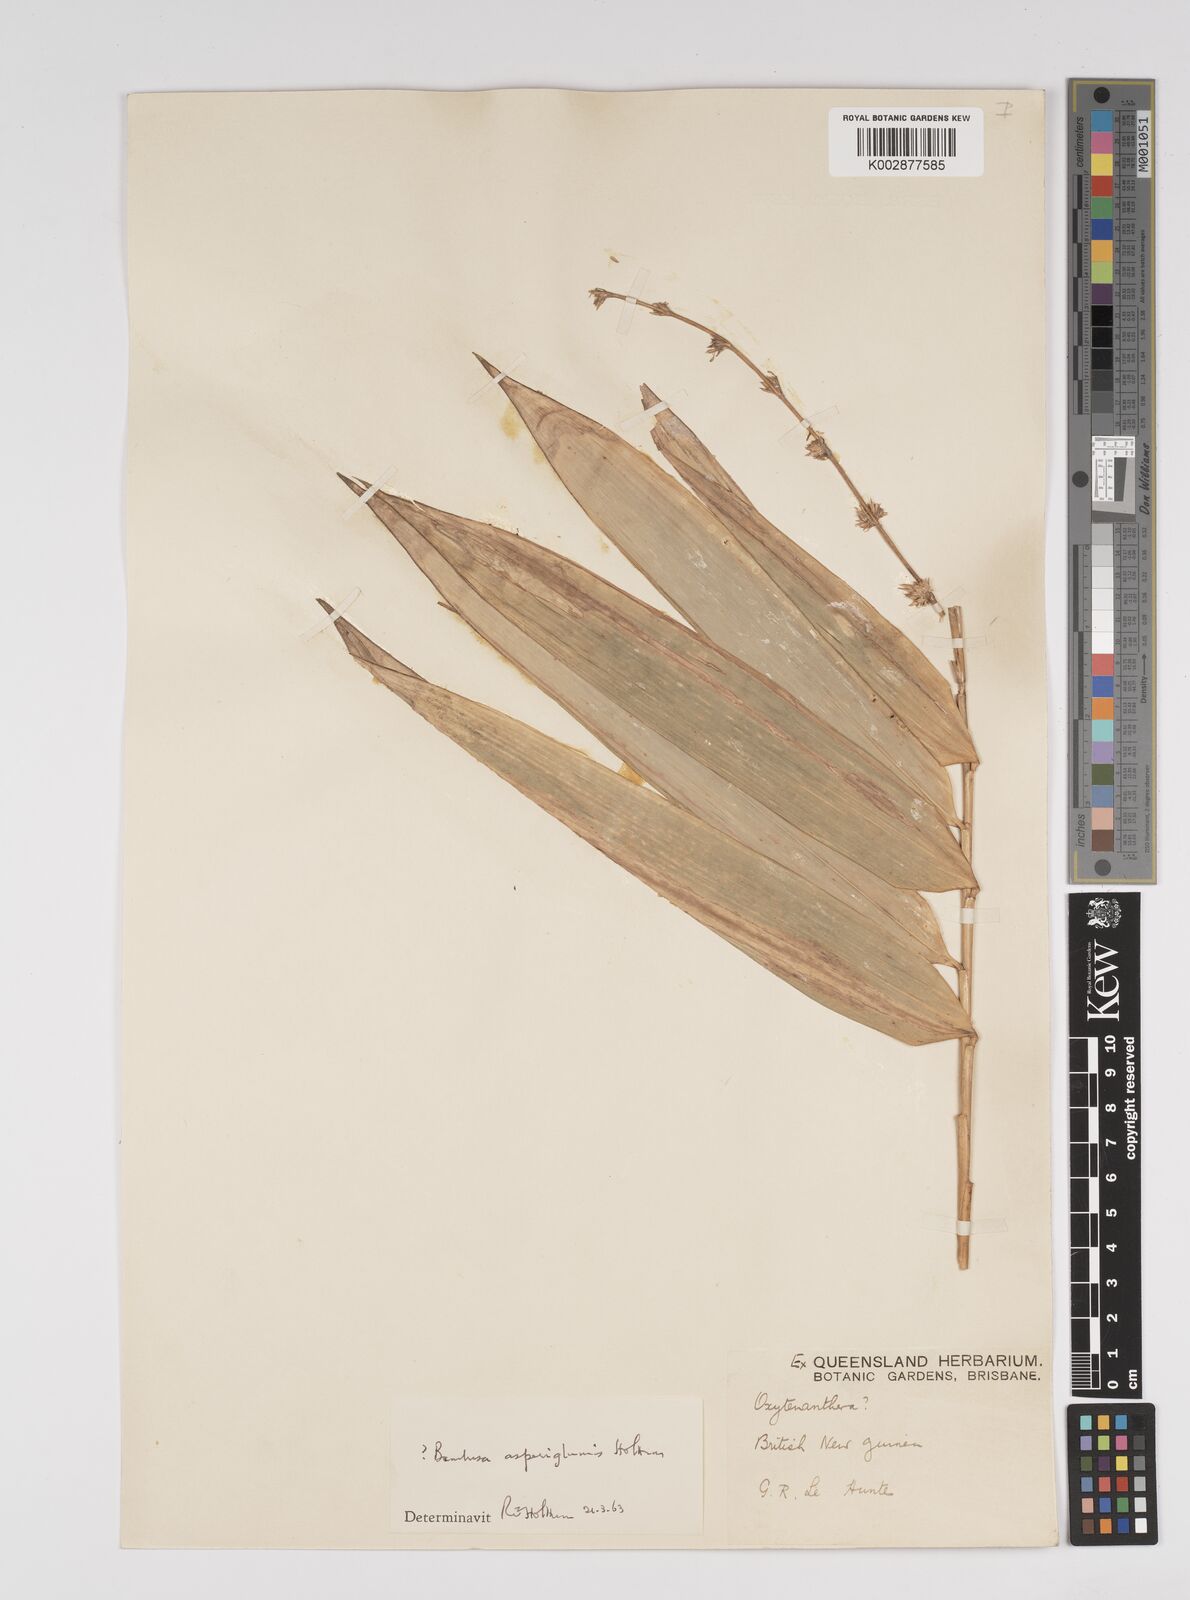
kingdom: Plantae
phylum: Tracheophyta
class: Liliopsida
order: Poales
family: Poaceae
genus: Bambusa
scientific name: Bambusa
